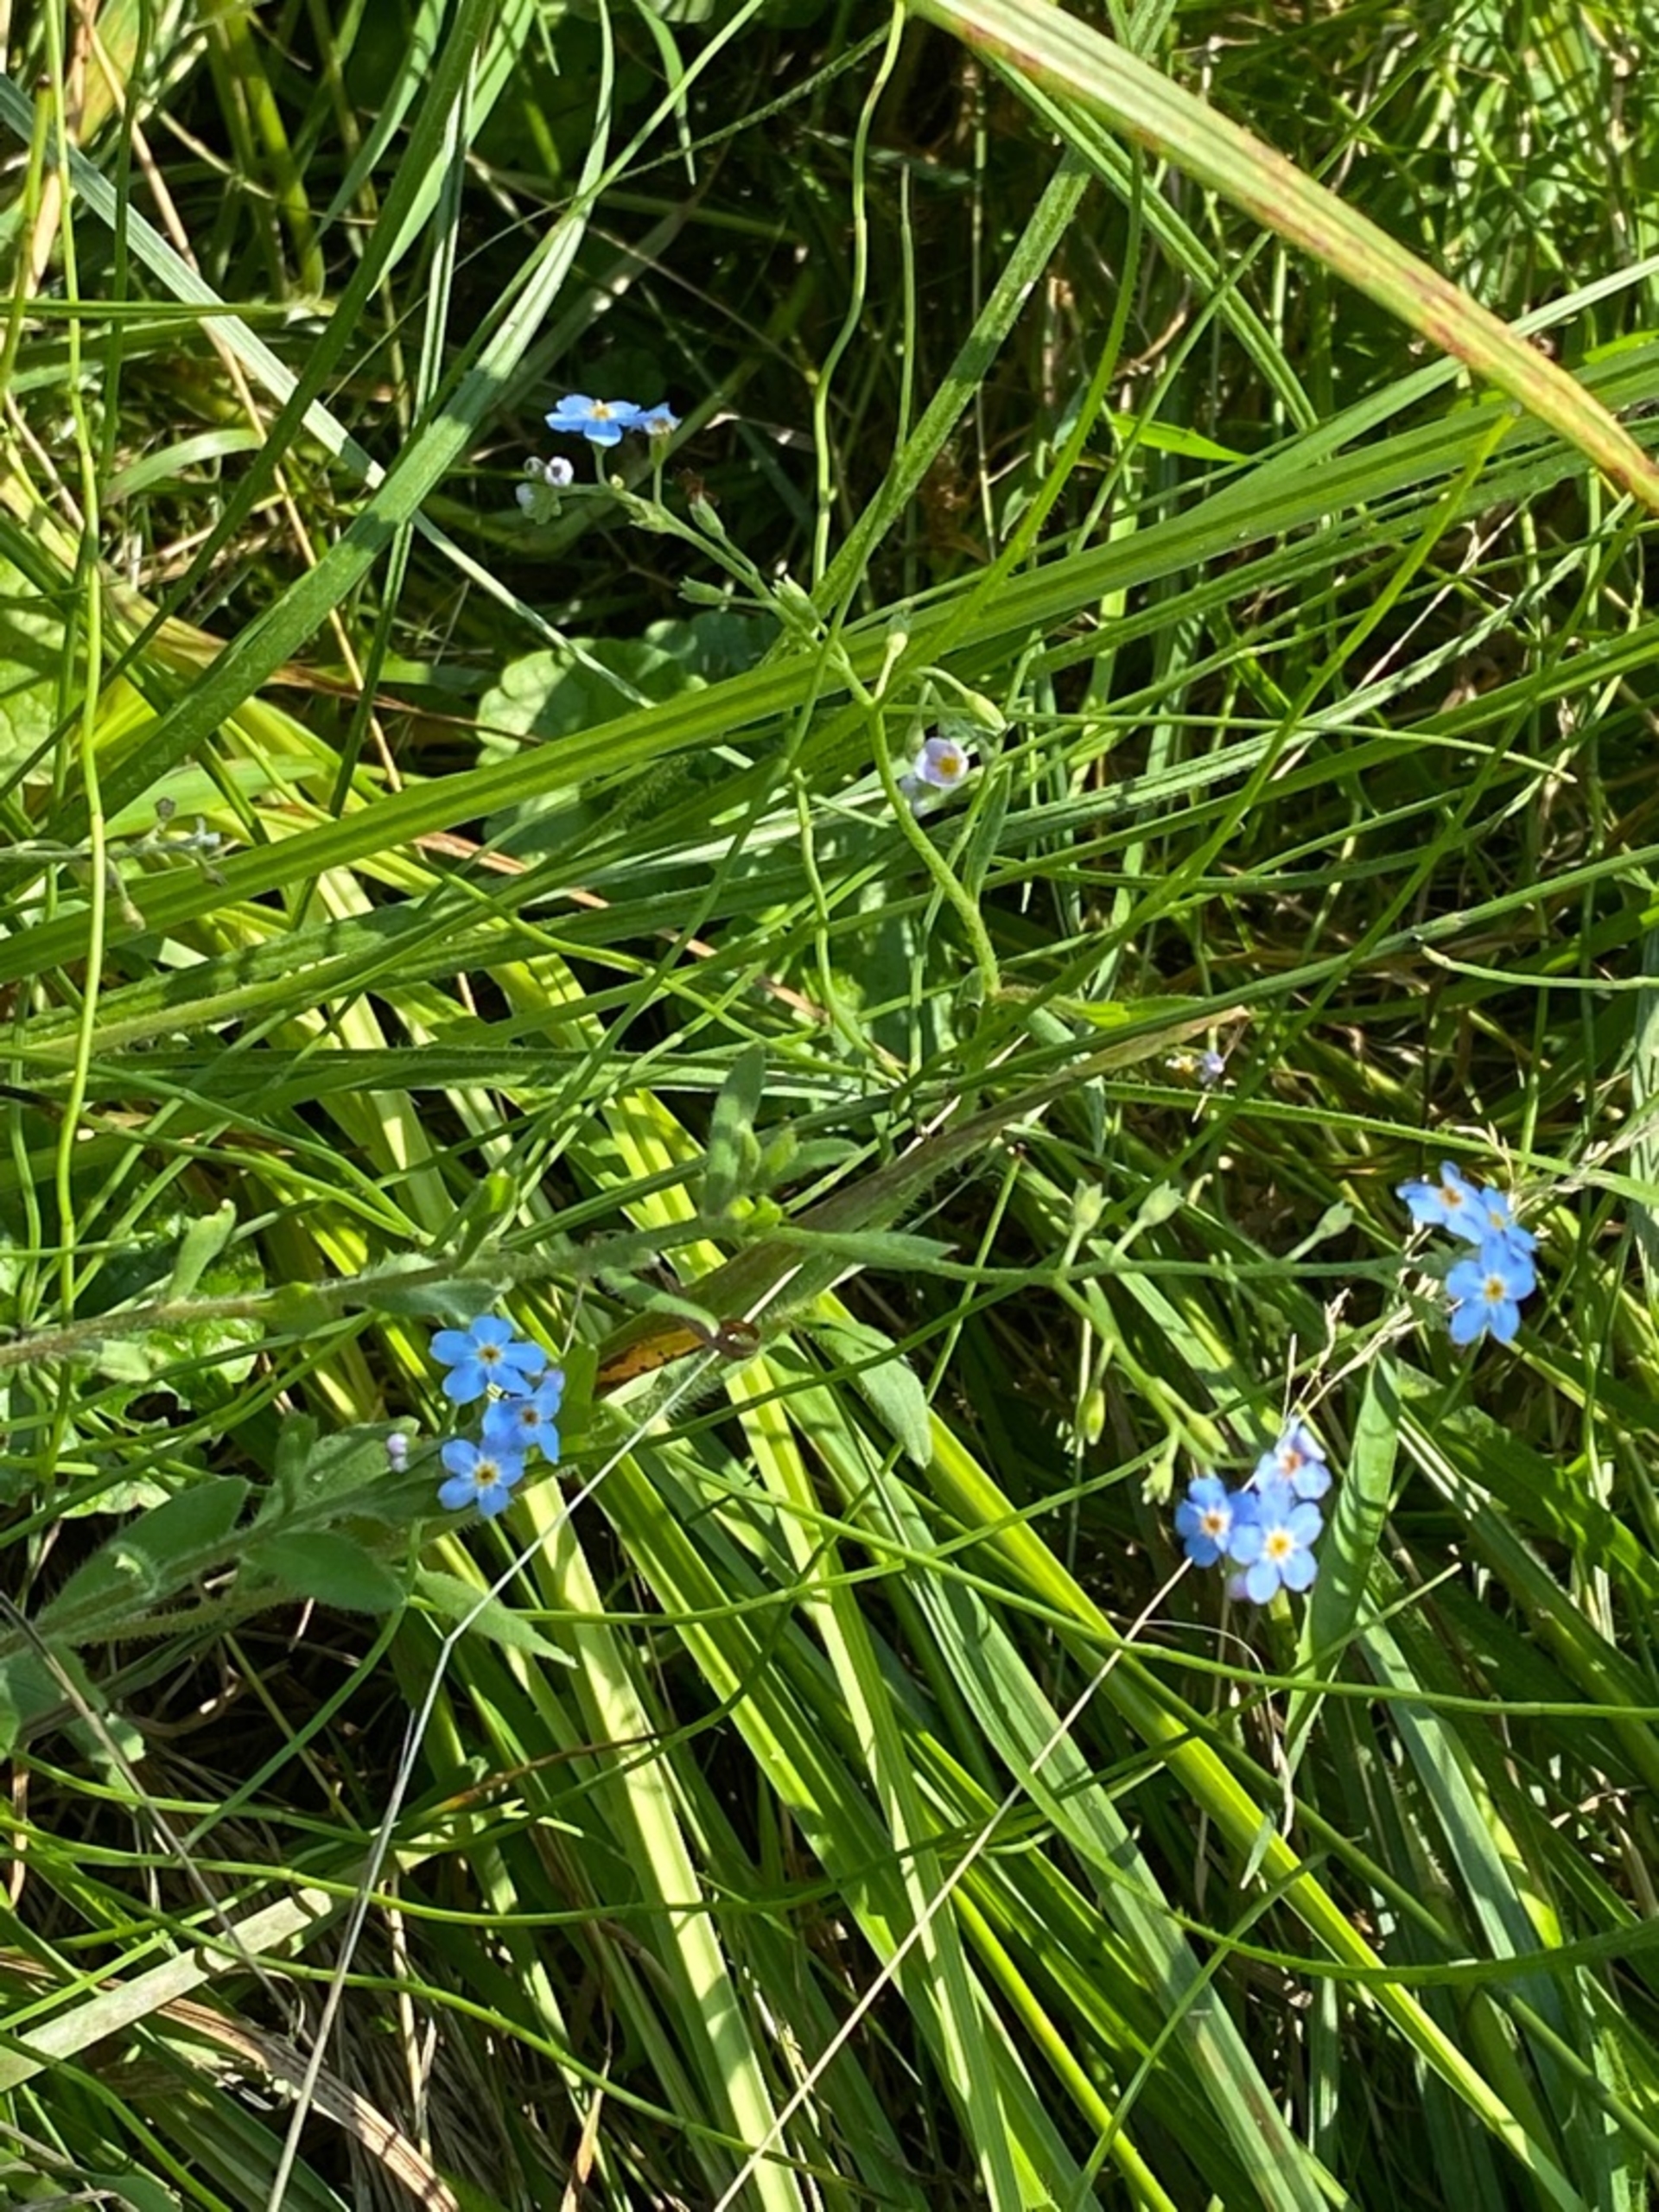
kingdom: Plantae
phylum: Tracheophyta
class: Magnoliopsida
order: Boraginales
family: Boraginaceae
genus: Myosotis
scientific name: Myosotis scorpioides
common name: Eng-forglemmigej
